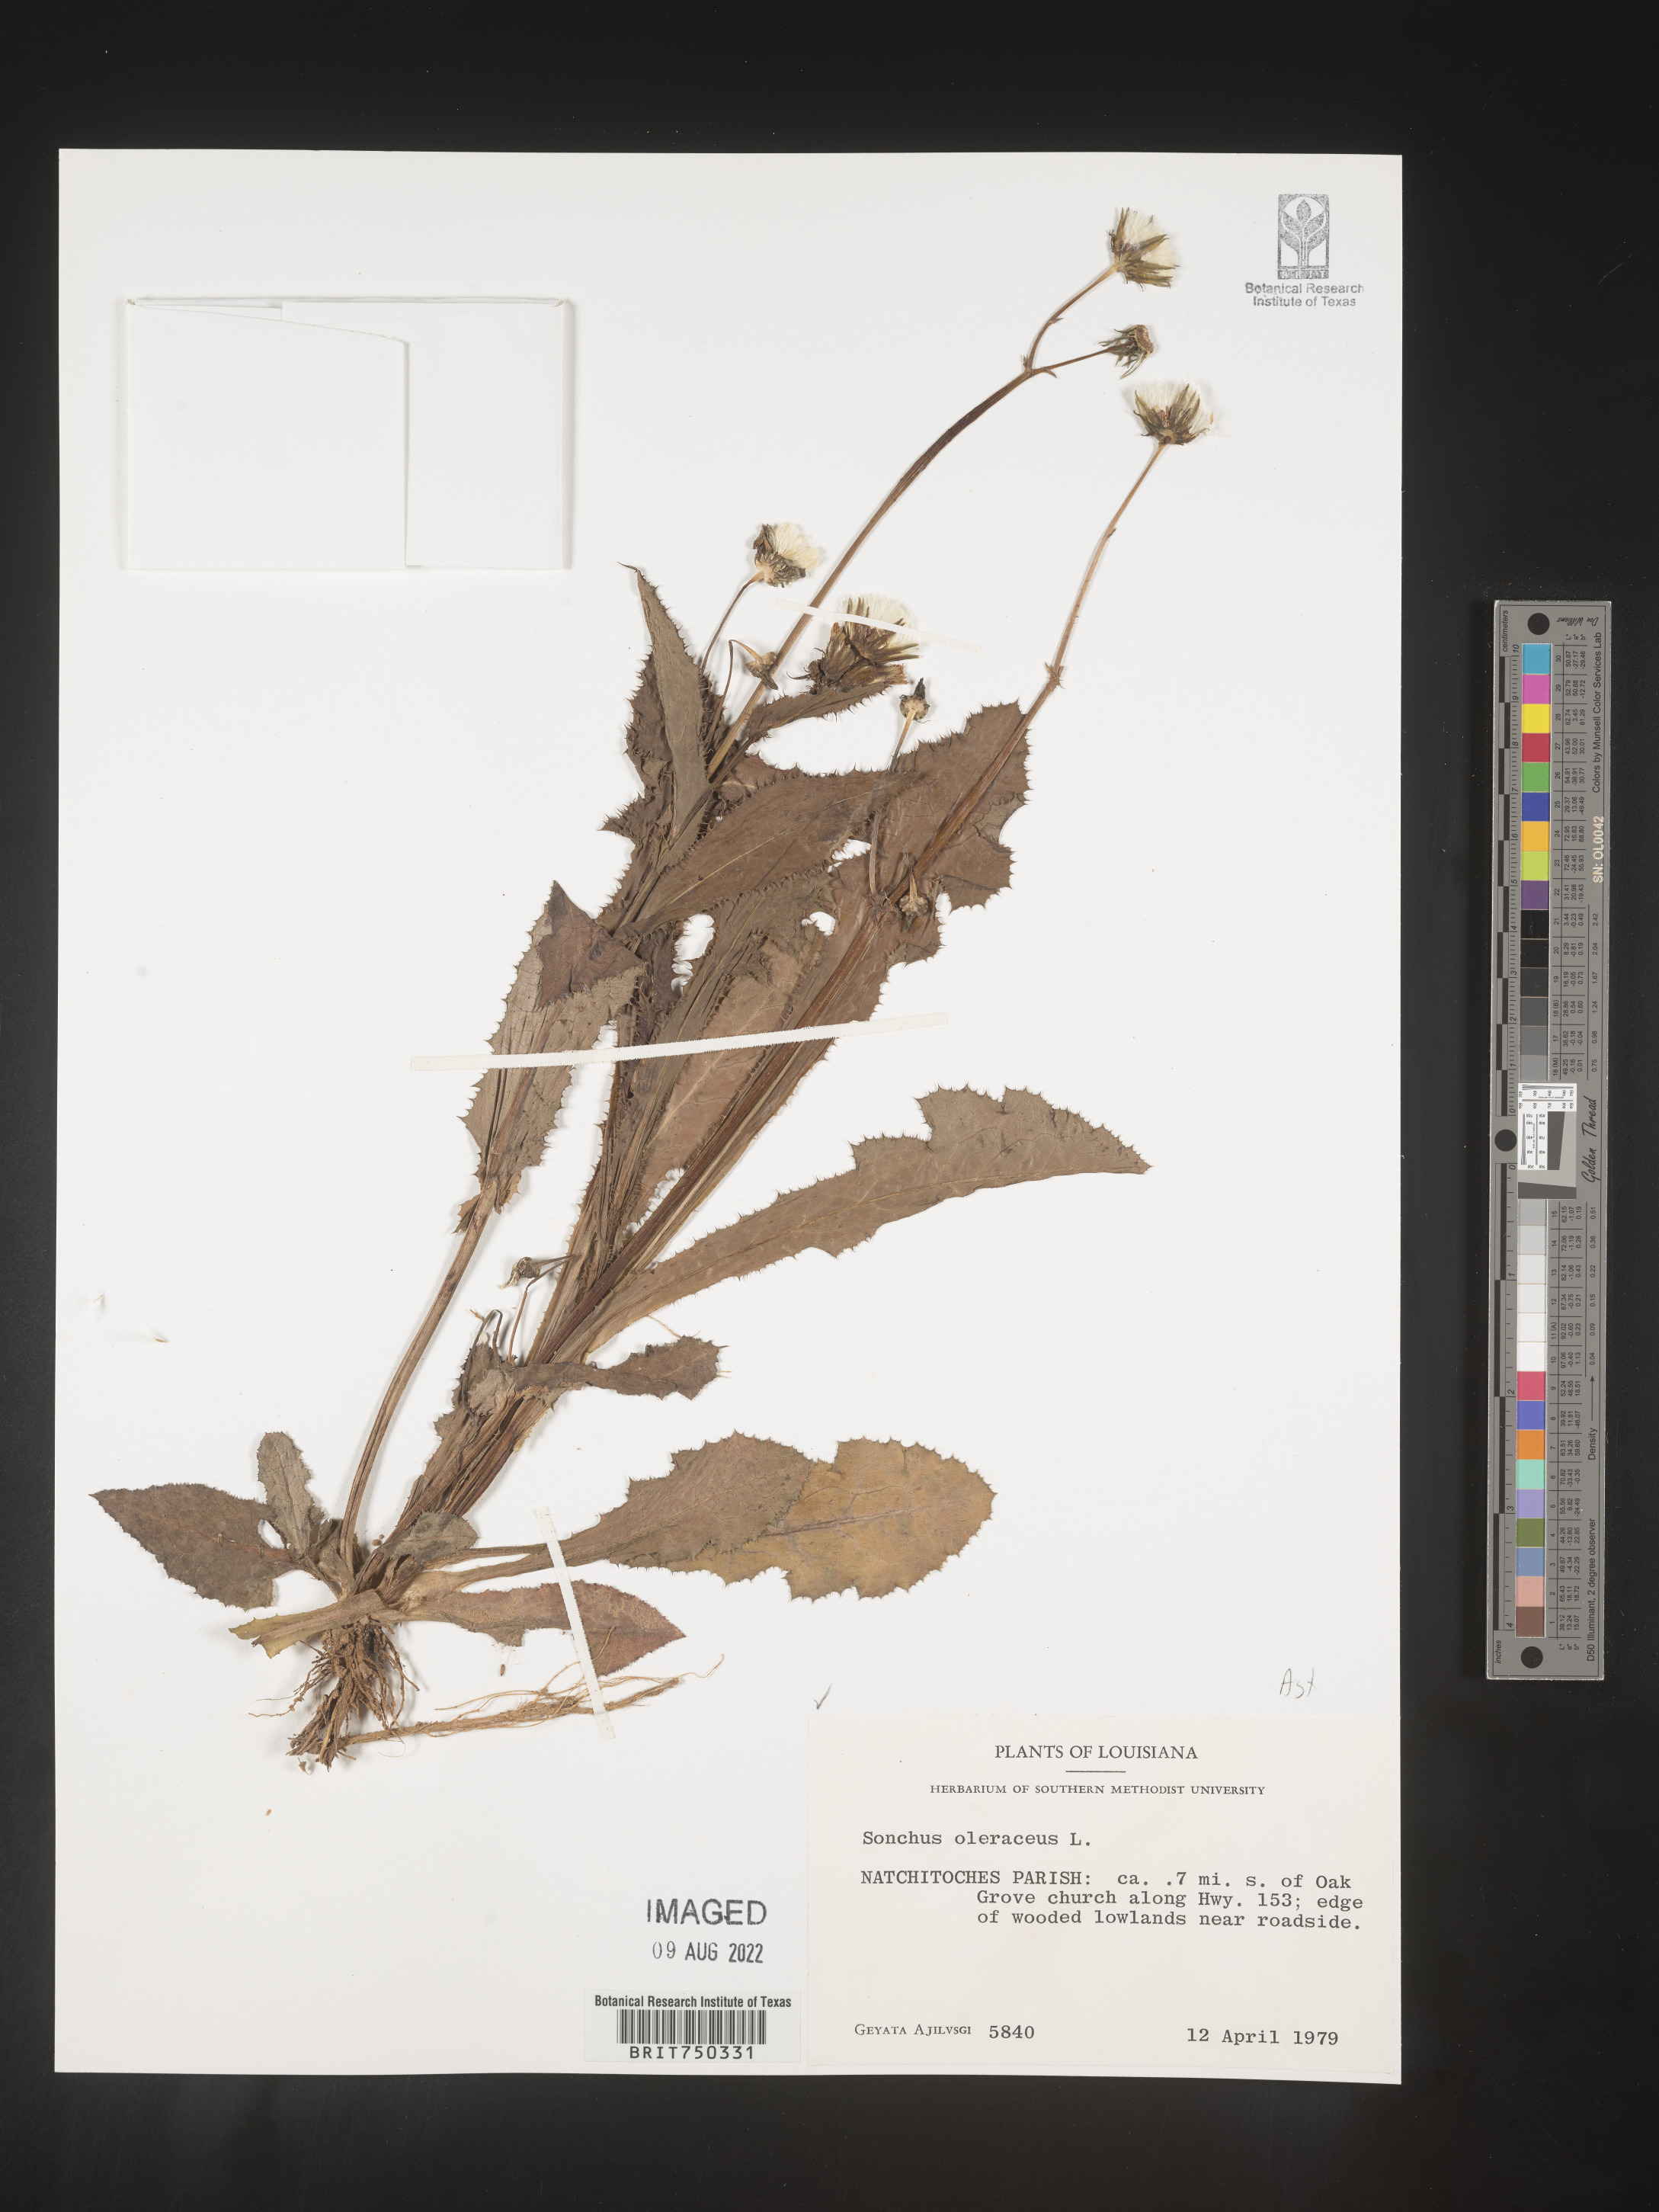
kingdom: Plantae
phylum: Tracheophyta
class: Magnoliopsida
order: Asterales
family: Asteraceae
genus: Sonchus
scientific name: Sonchus oleraceus
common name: Common sowthistle
